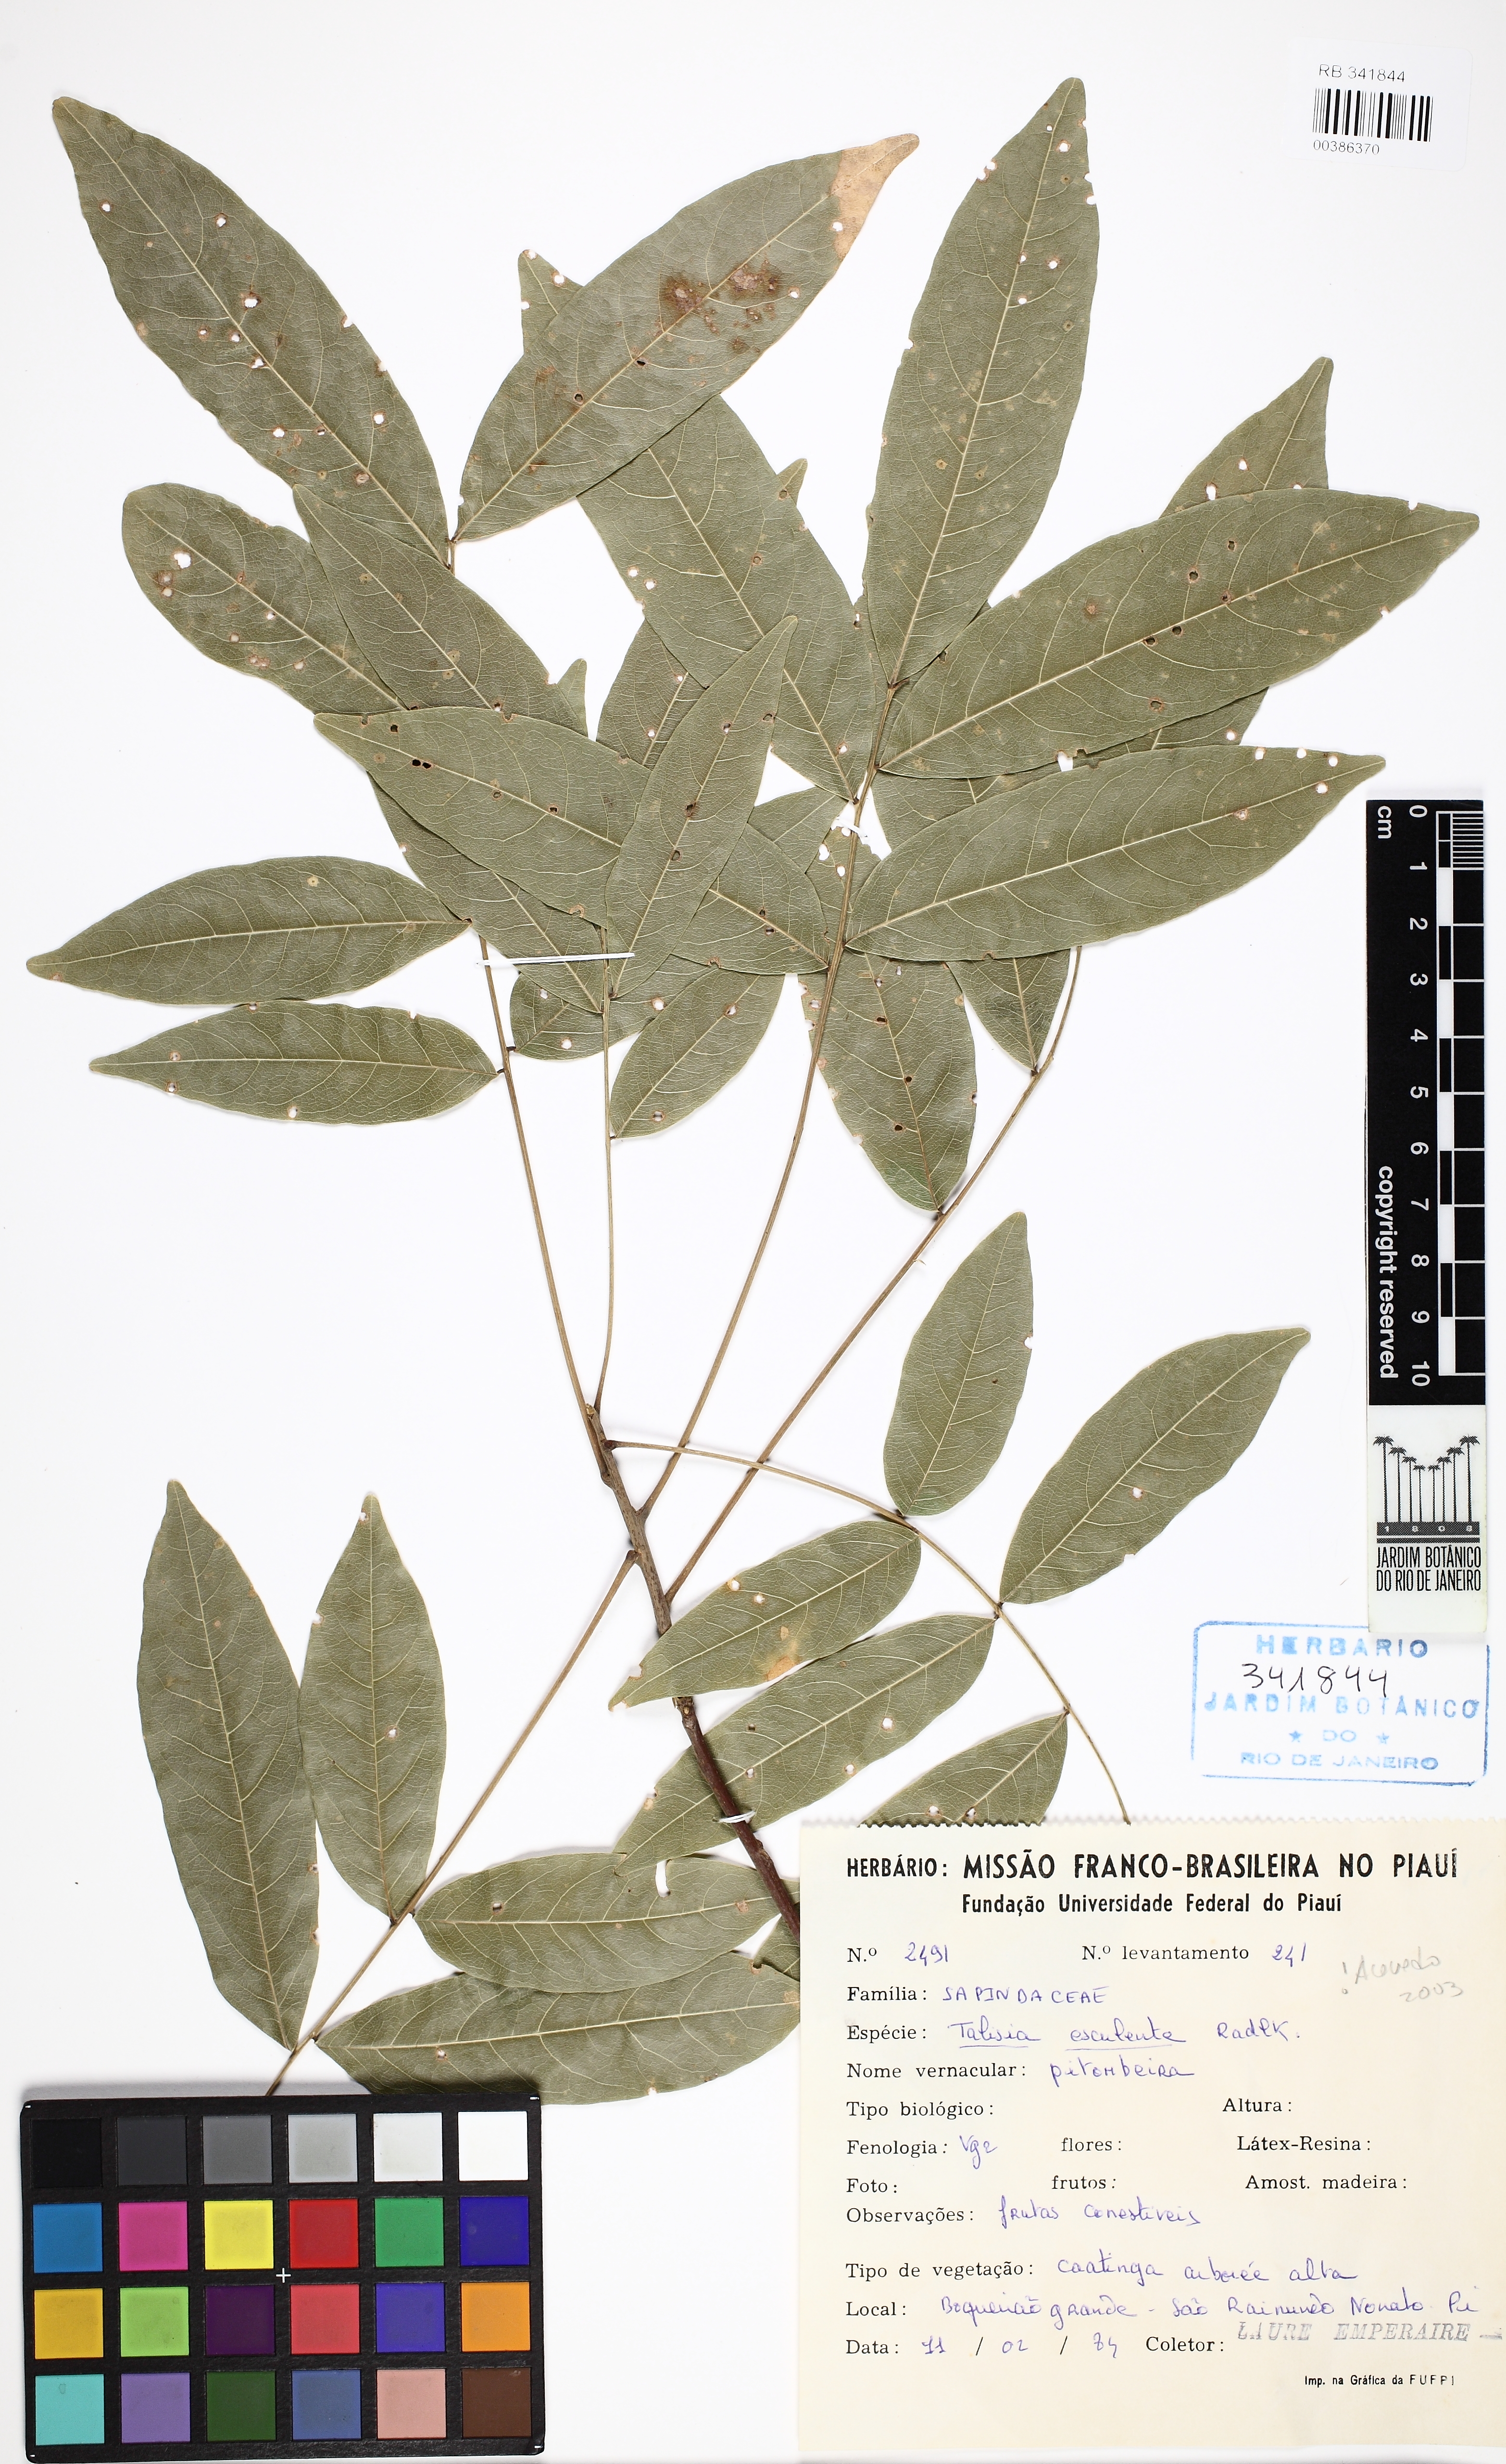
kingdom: Plantae
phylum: Tracheophyta
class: Magnoliopsida
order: Sapindales
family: Sapindaceae
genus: Talisia
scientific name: Talisia esculenta
